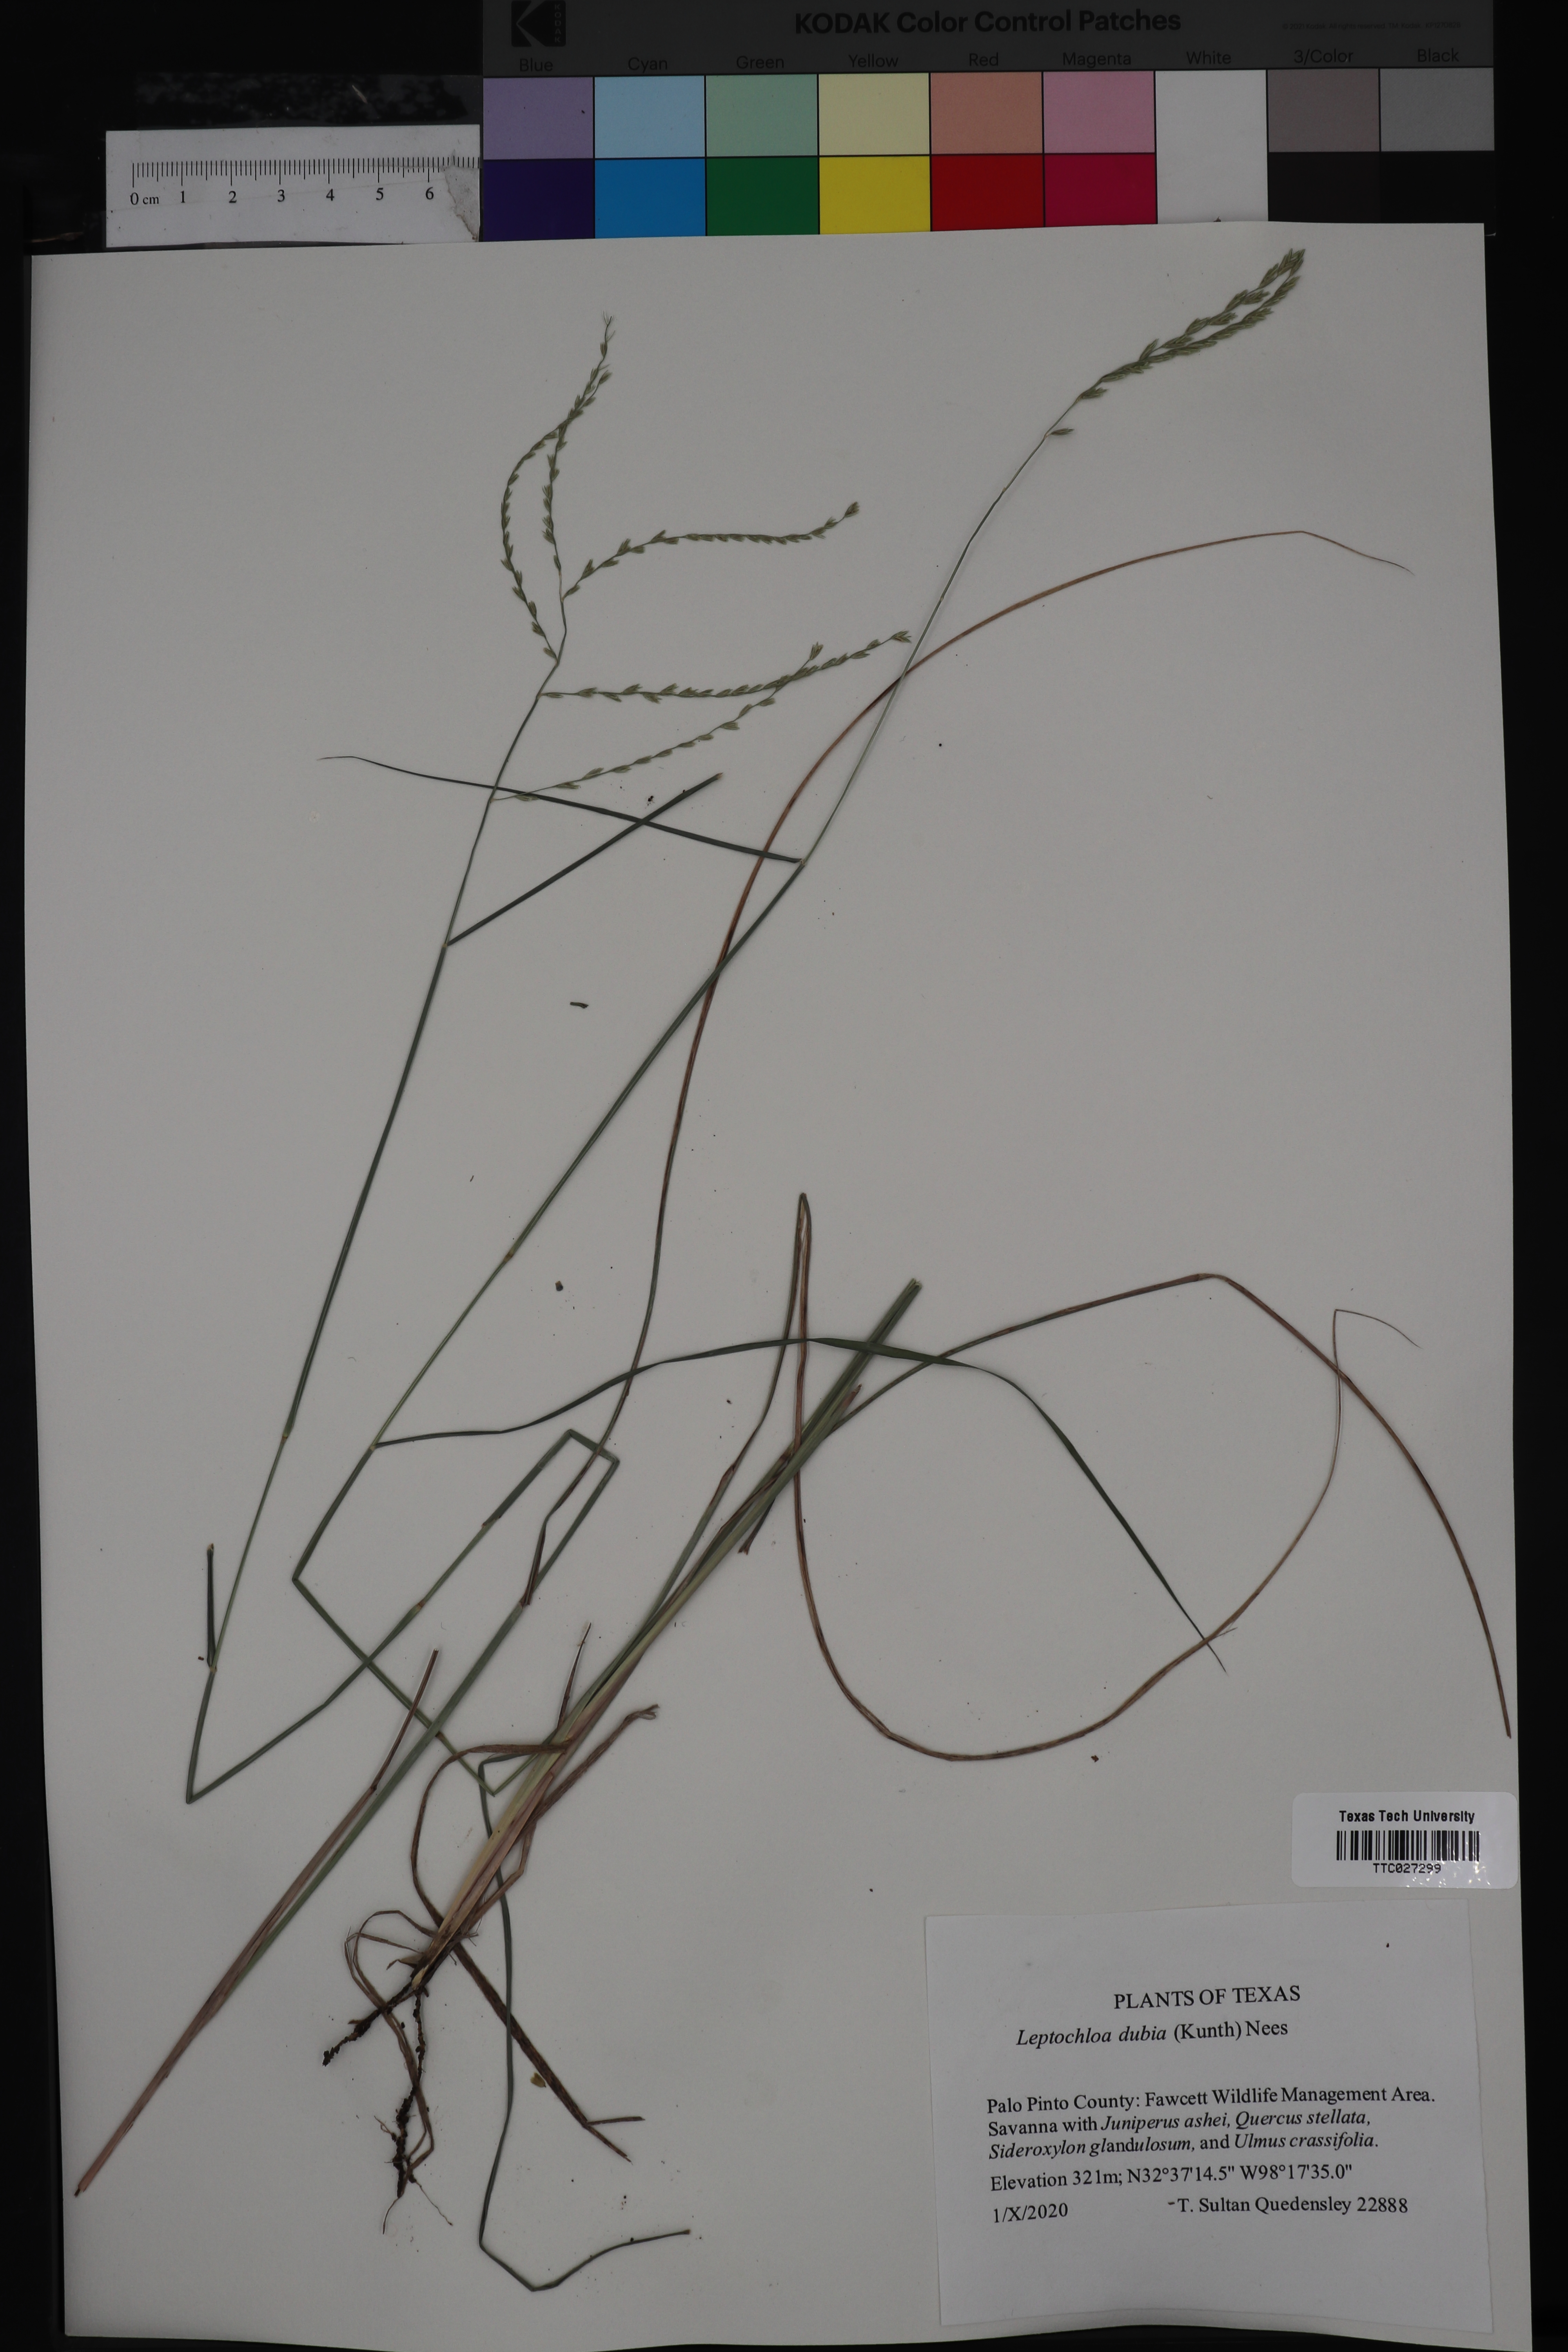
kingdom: Plantae
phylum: Tracheophyta
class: Liliopsida
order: Poales
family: Poaceae
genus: Disakisperma
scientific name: Disakisperma dubium
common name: Green sprangletop
